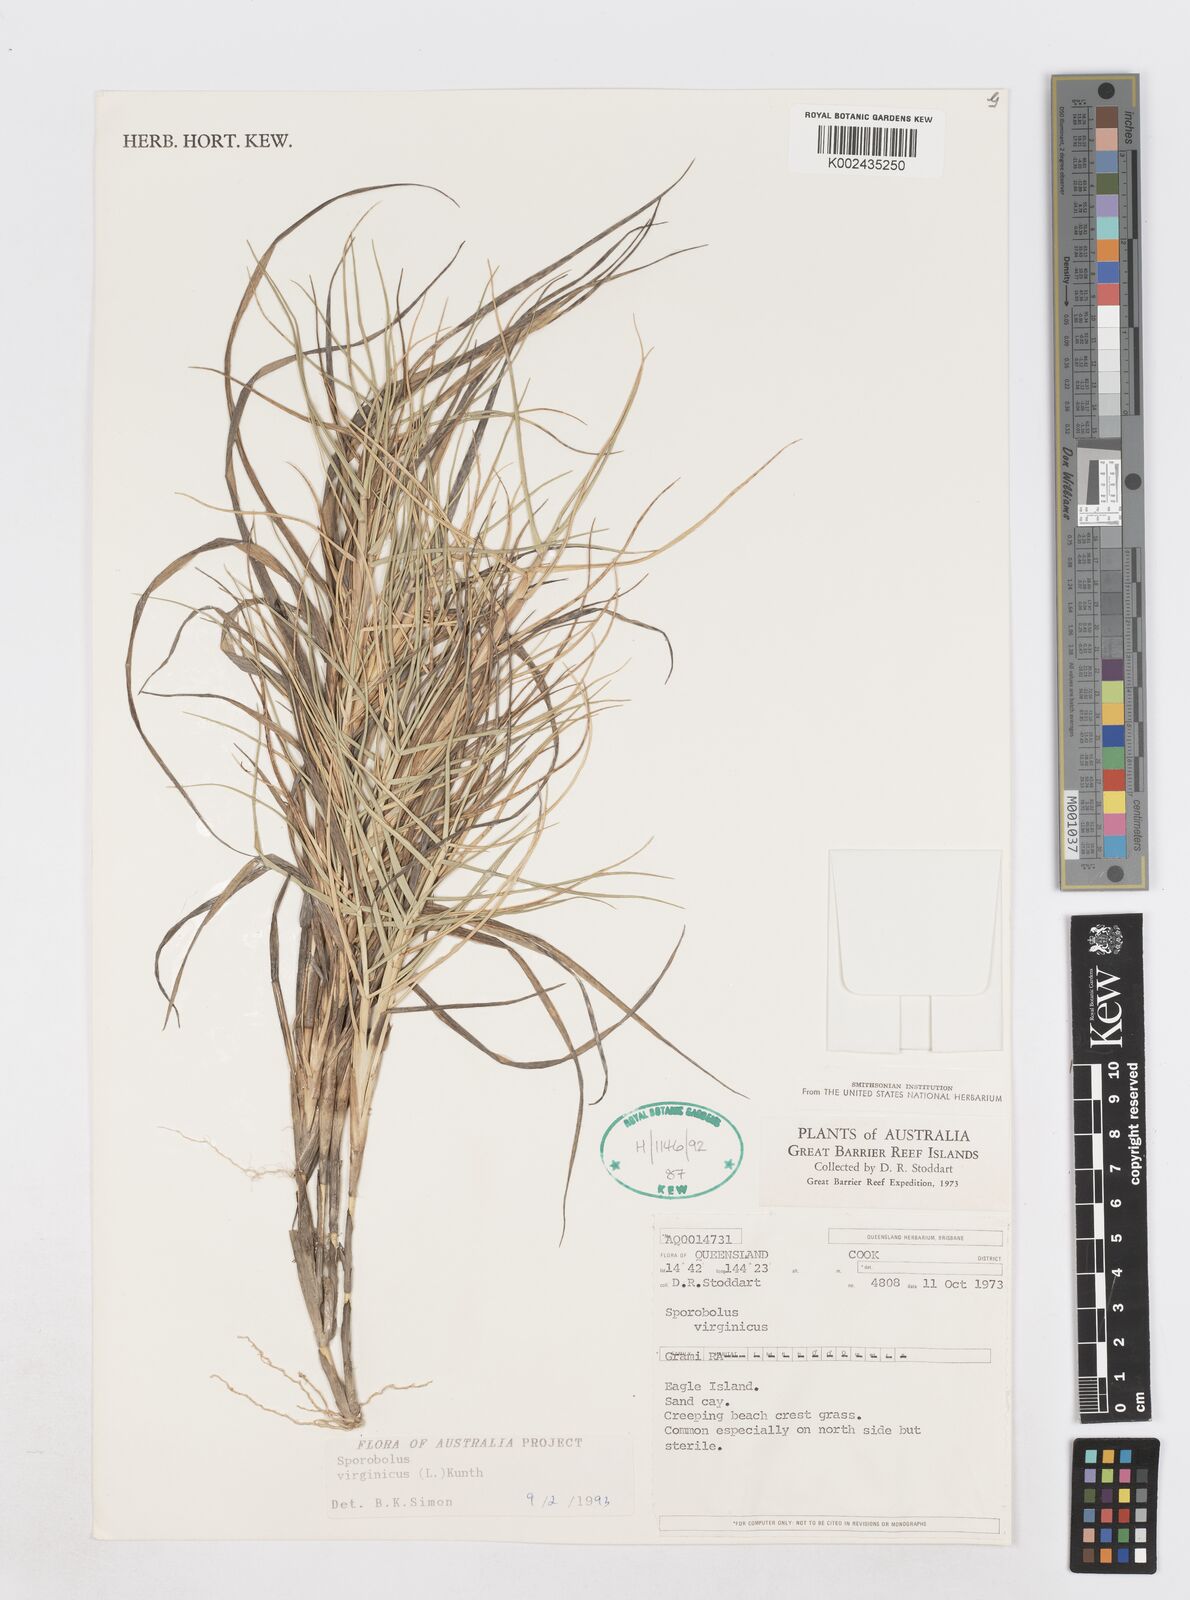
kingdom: Plantae
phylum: Tracheophyta
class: Liliopsida
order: Poales
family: Poaceae
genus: Sporobolus
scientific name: Sporobolus virginicus
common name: Beach dropseed
